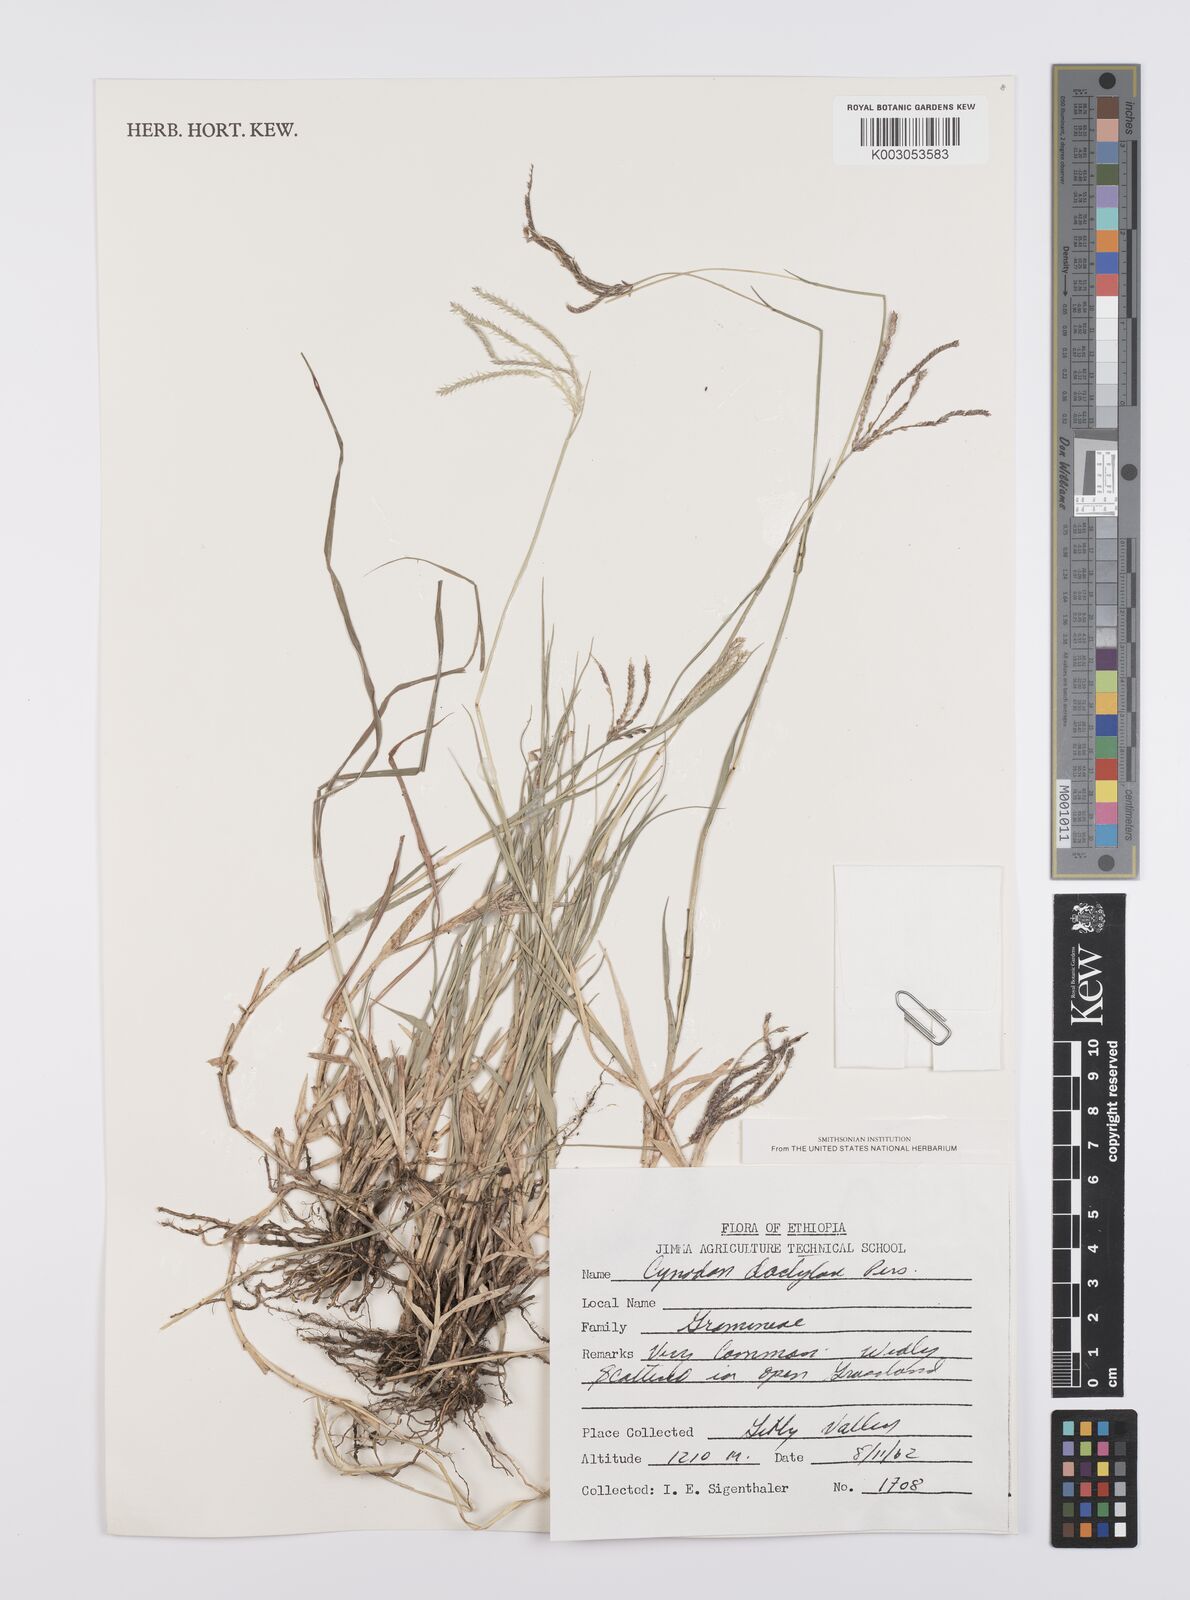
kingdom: Plantae
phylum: Tracheophyta
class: Liliopsida
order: Poales
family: Poaceae
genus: Cynodon
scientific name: Cynodon dactylon
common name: Bermuda grass
